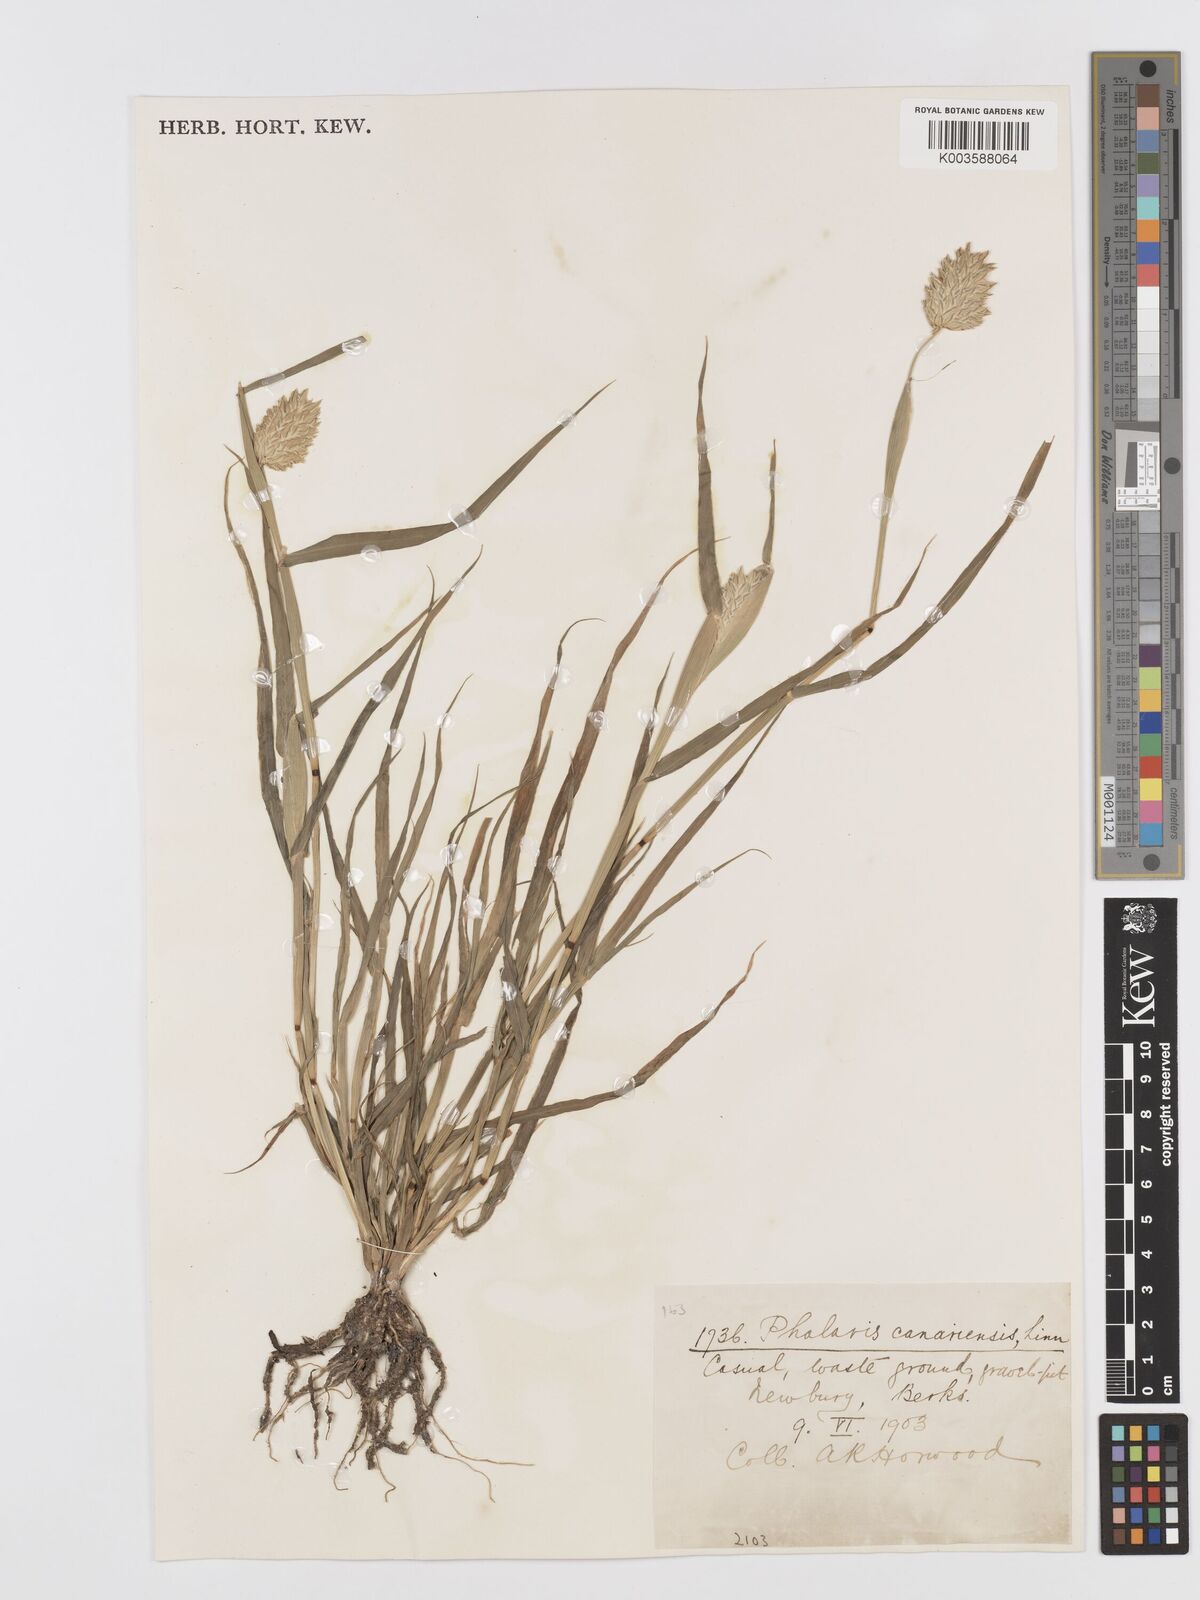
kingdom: Plantae
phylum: Tracheophyta
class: Liliopsida
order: Poales
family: Poaceae
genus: Phalaris
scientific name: Phalaris canariensis
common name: Annual canarygrass
